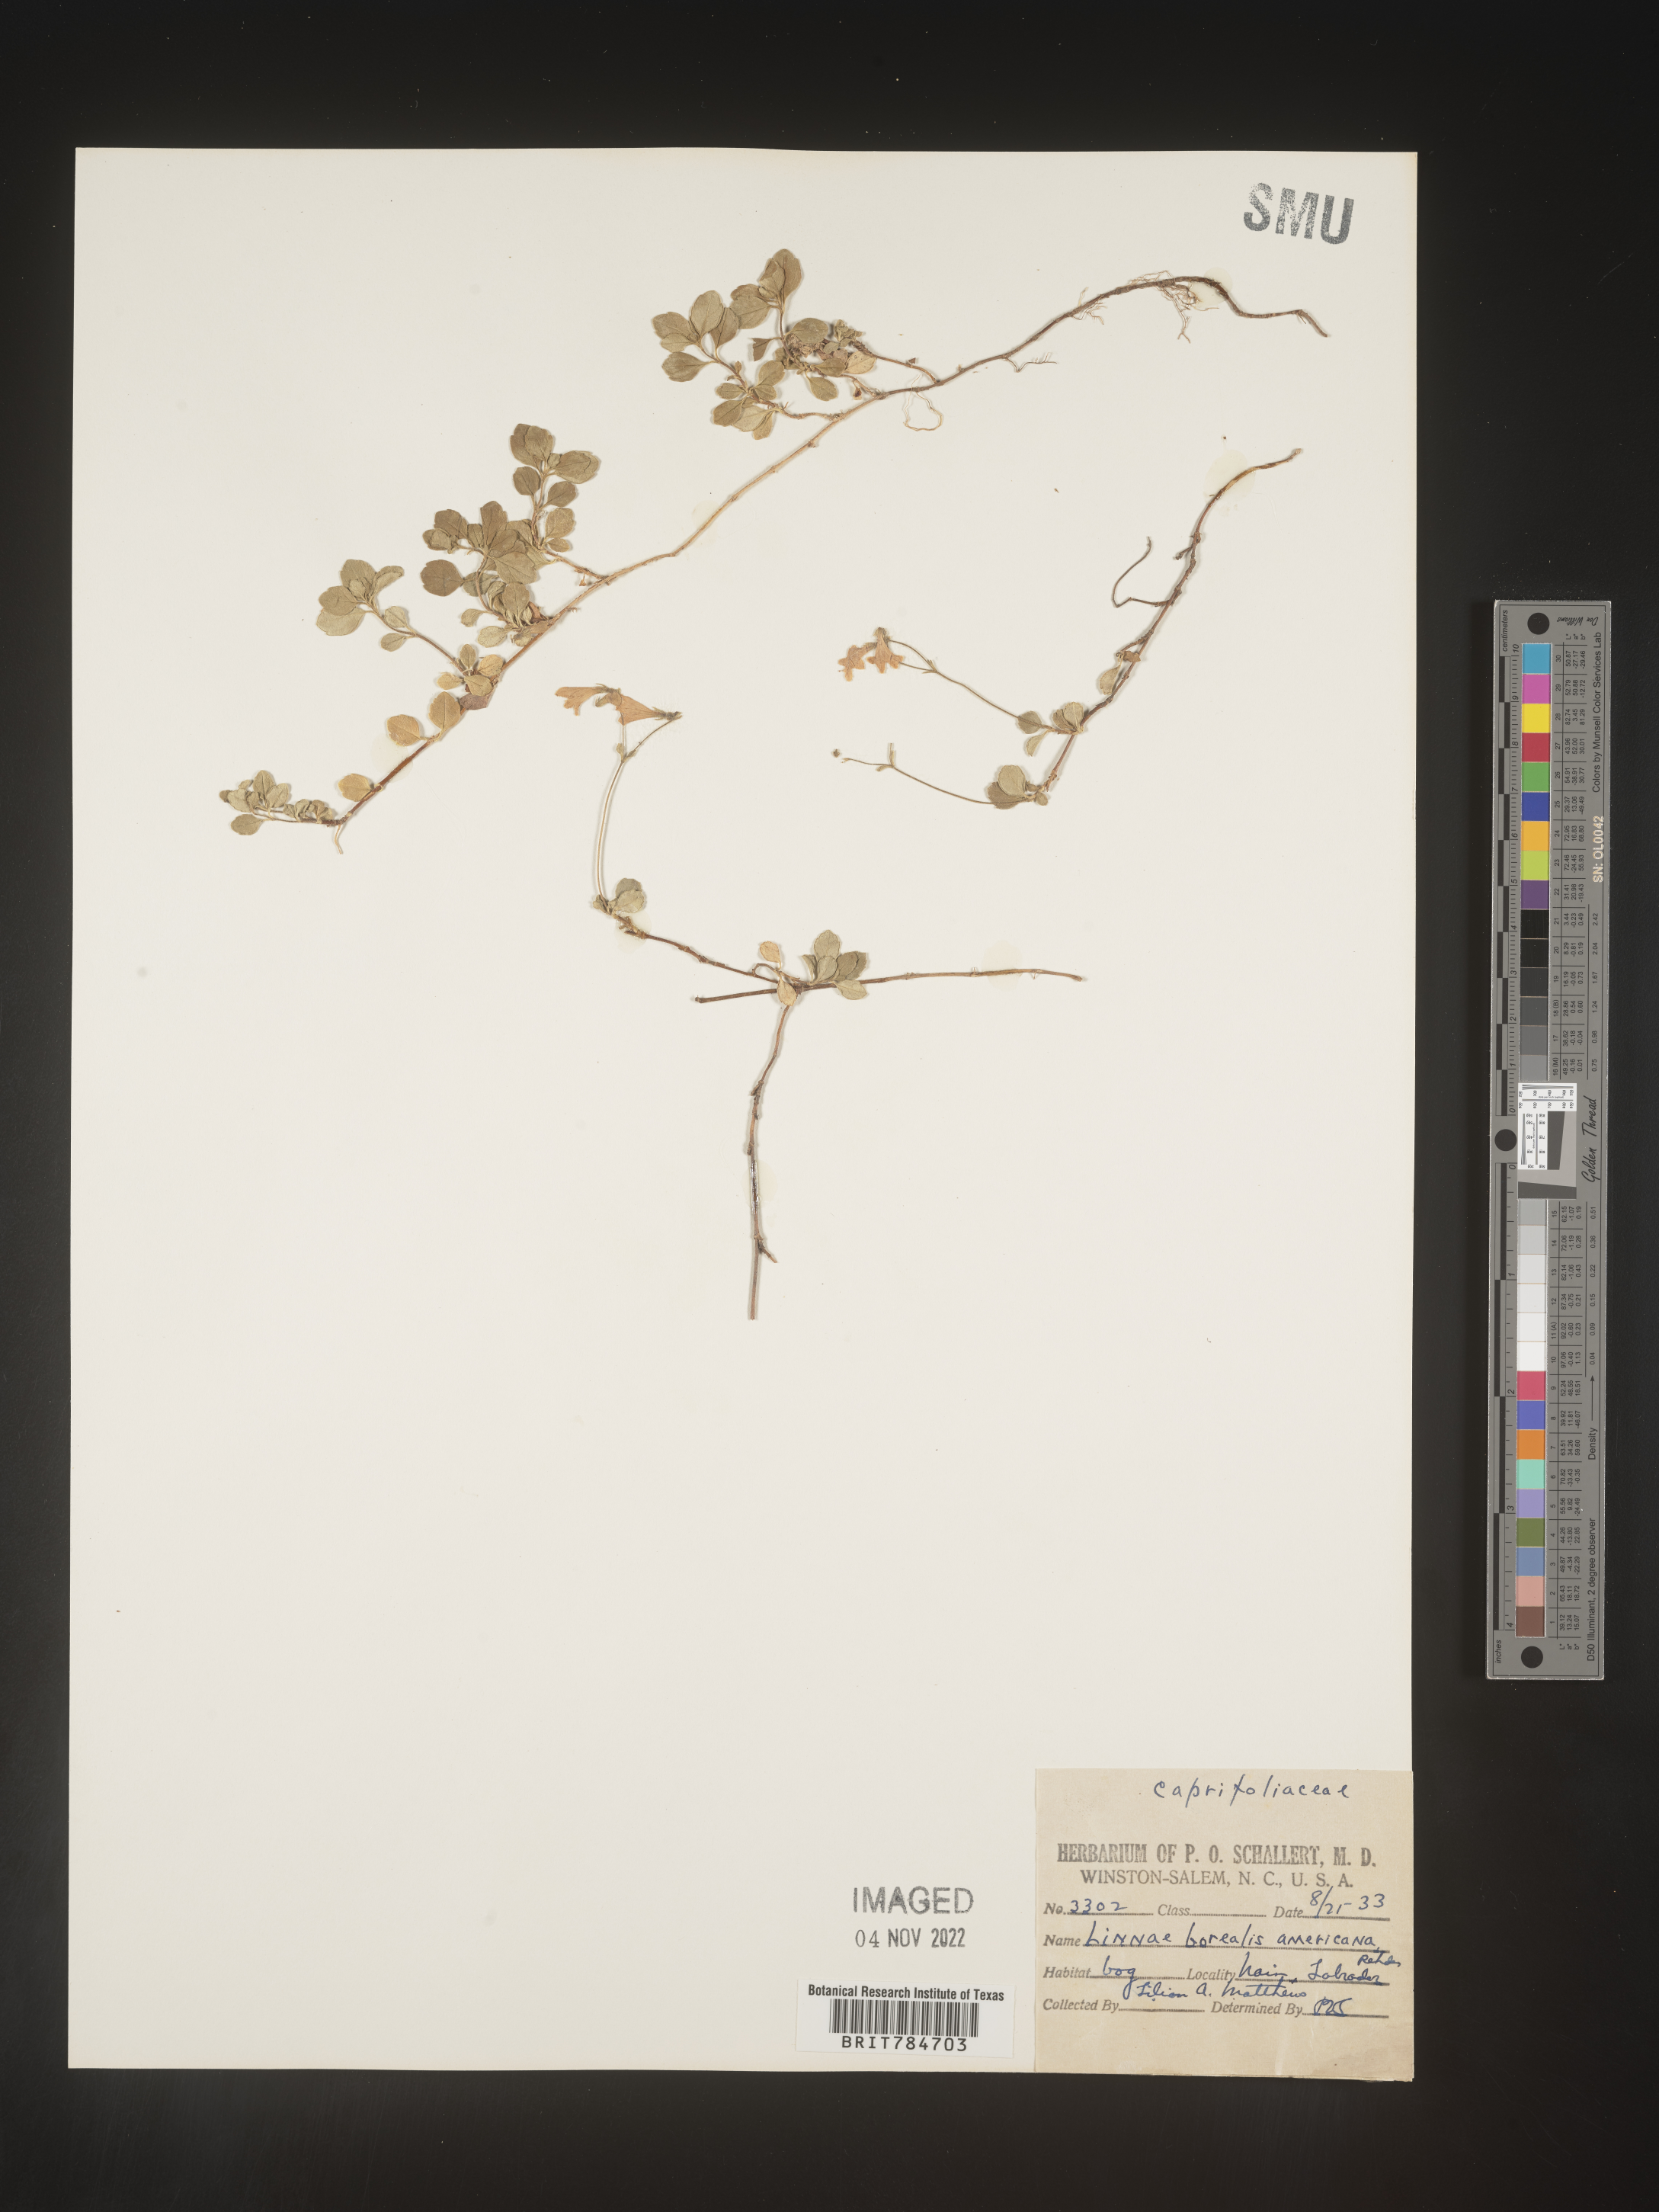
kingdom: Plantae
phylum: Tracheophyta
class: Magnoliopsida
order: Dipsacales
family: Caprifoliaceae
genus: Linnaea
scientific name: Linnaea borealis
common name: Twinflower
